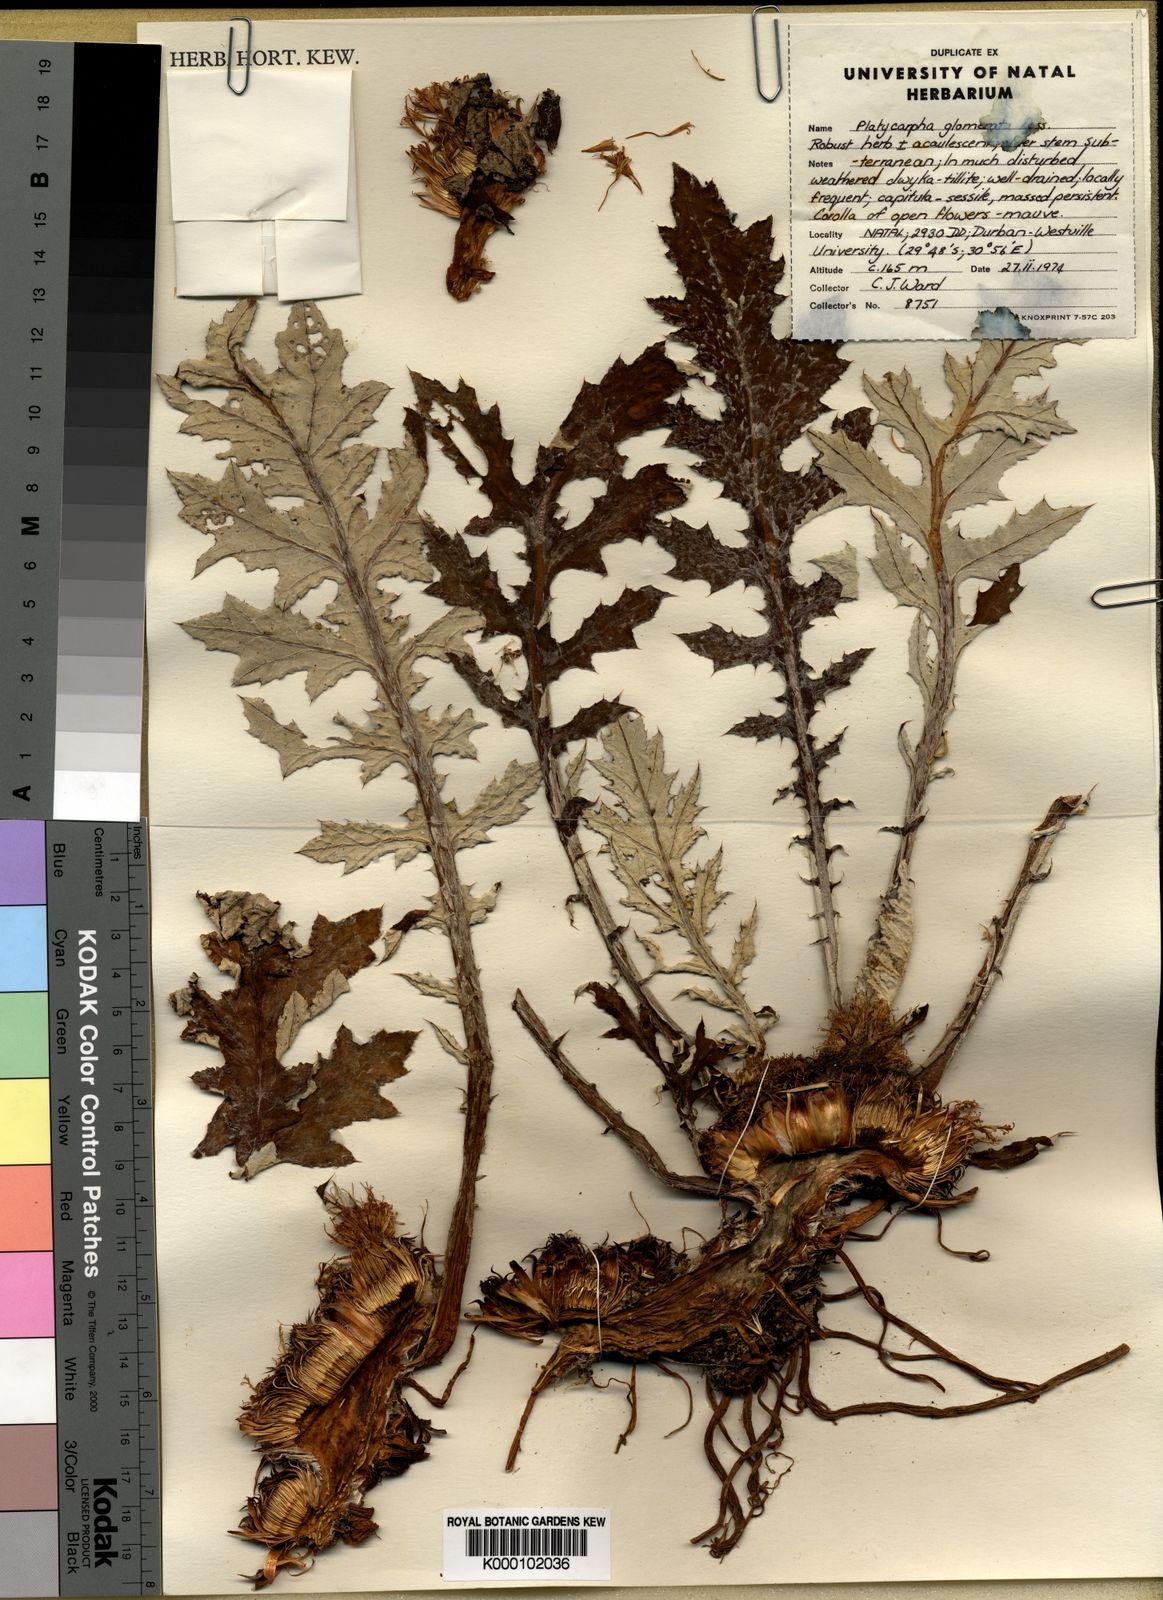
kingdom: Plantae
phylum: Tracheophyta
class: Magnoliopsida
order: Asterales
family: Asteraceae
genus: Platycarpha
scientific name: Platycarpha
